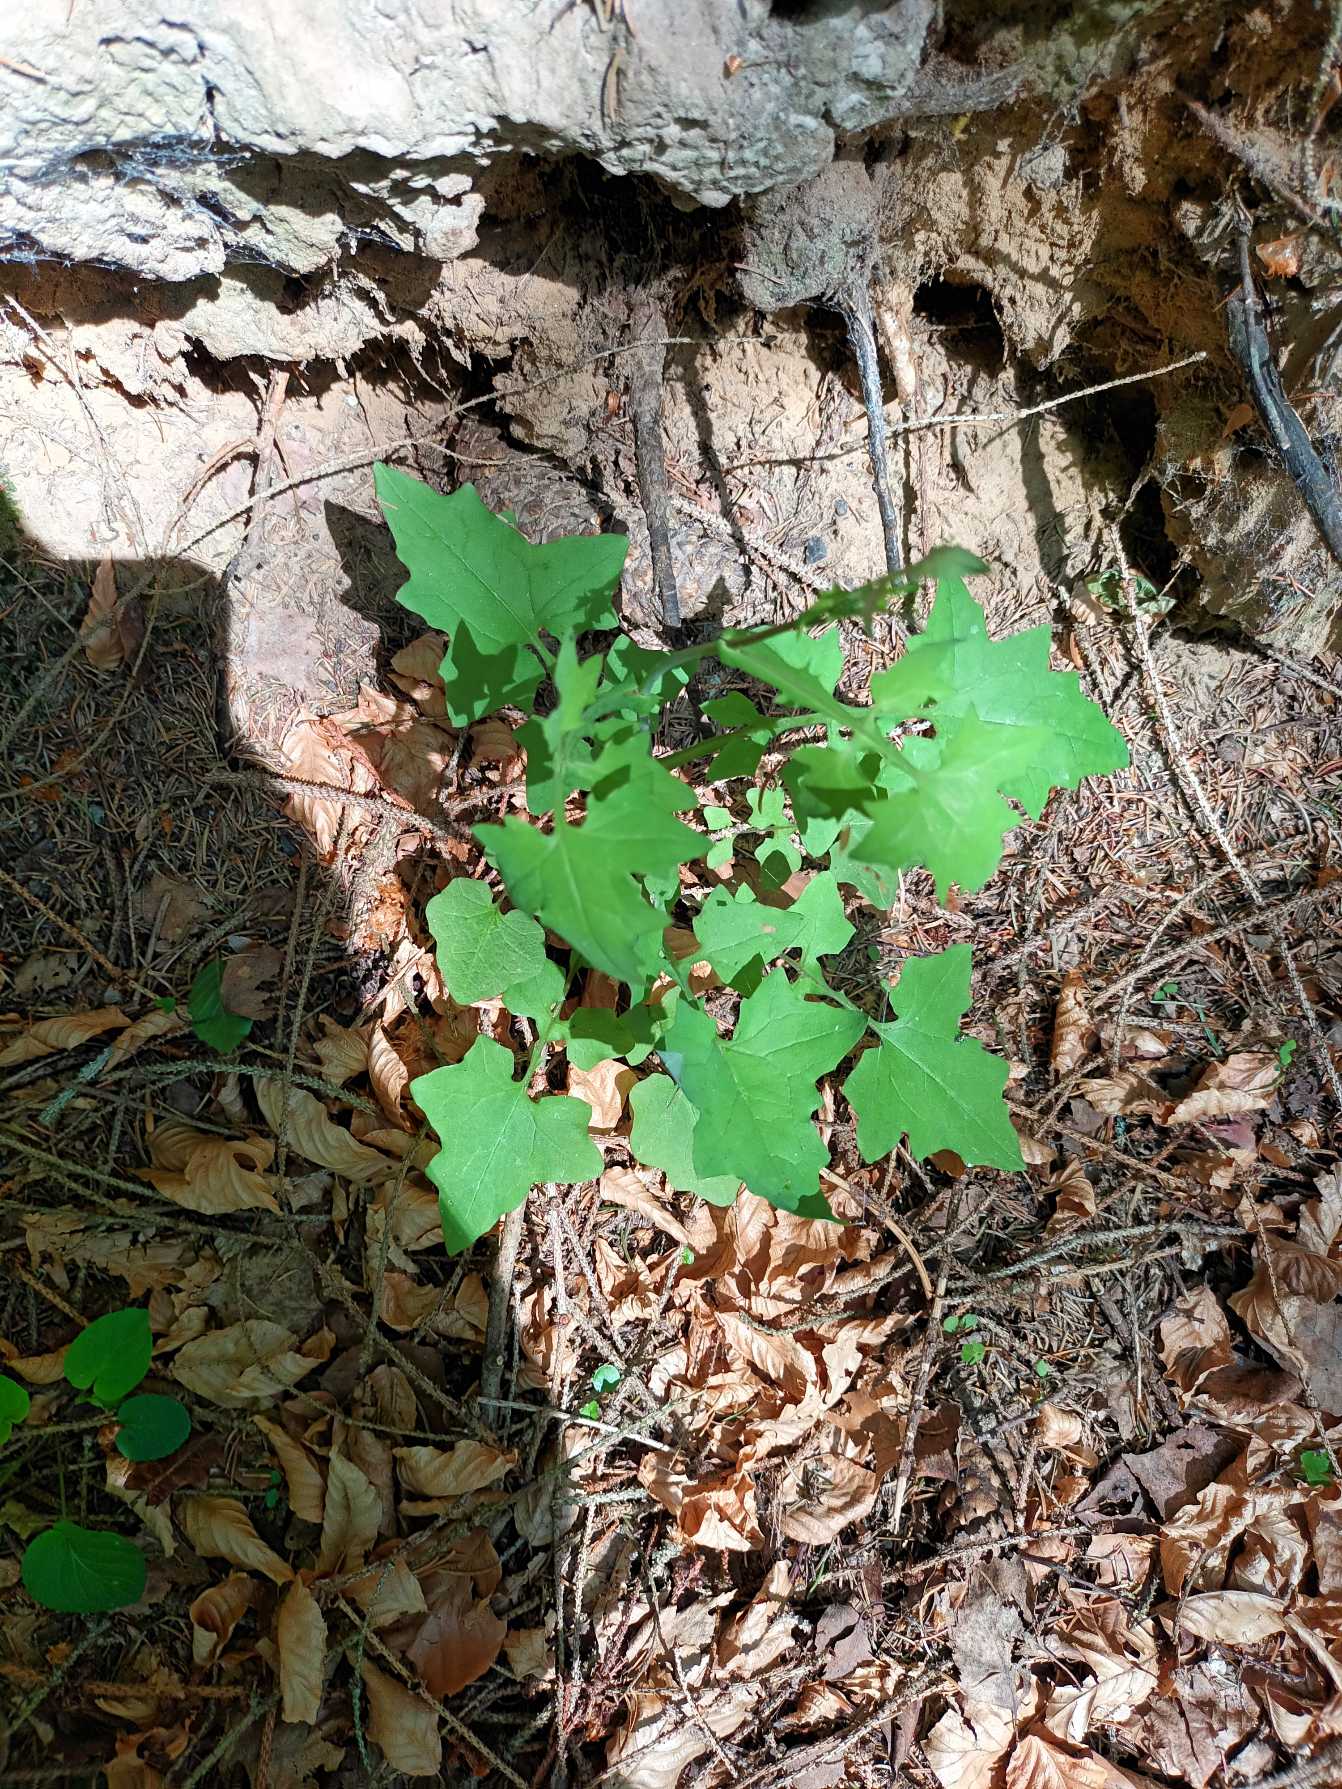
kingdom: Plantae
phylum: Tracheophyta
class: Magnoliopsida
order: Asterales
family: Asteraceae
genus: Mycelis
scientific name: Mycelis muralis
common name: Skov-salat
